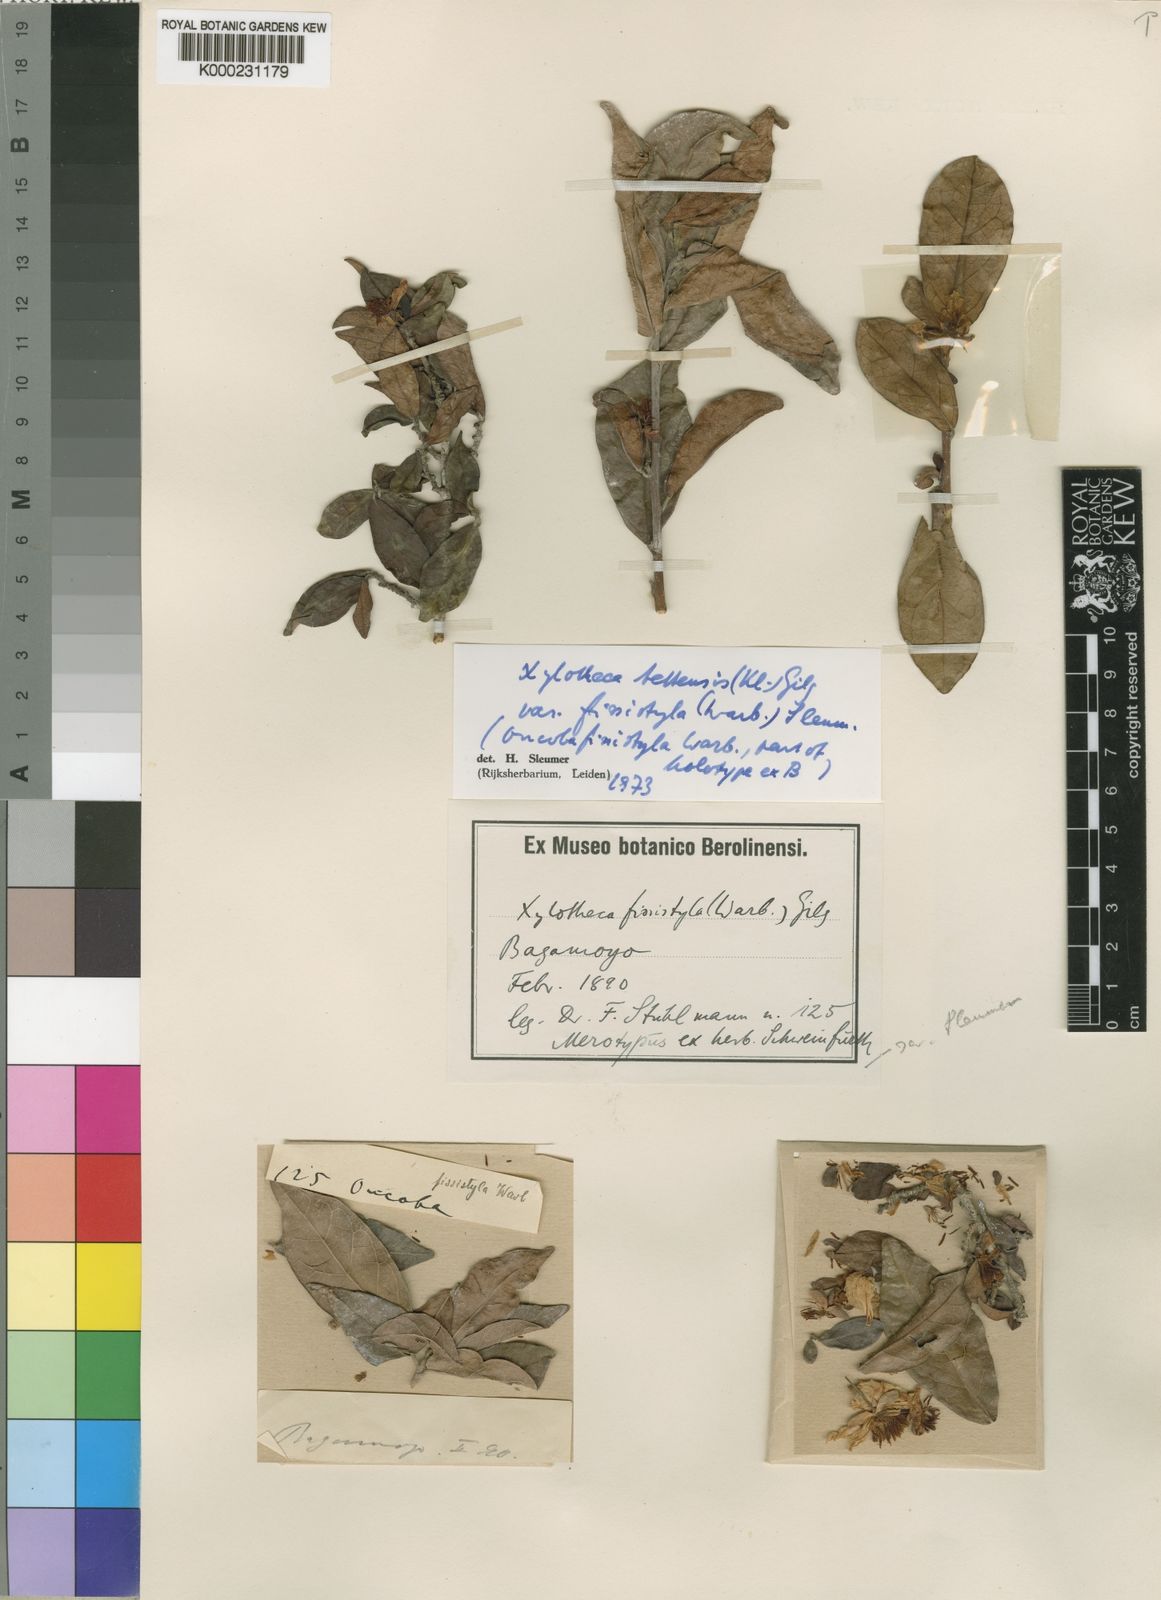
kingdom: Plantae
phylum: Tracheophyta
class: Magnoliopsida
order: Malpighiales
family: Achariaceae
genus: Xylotheca
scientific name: Xylotheca tettensis
